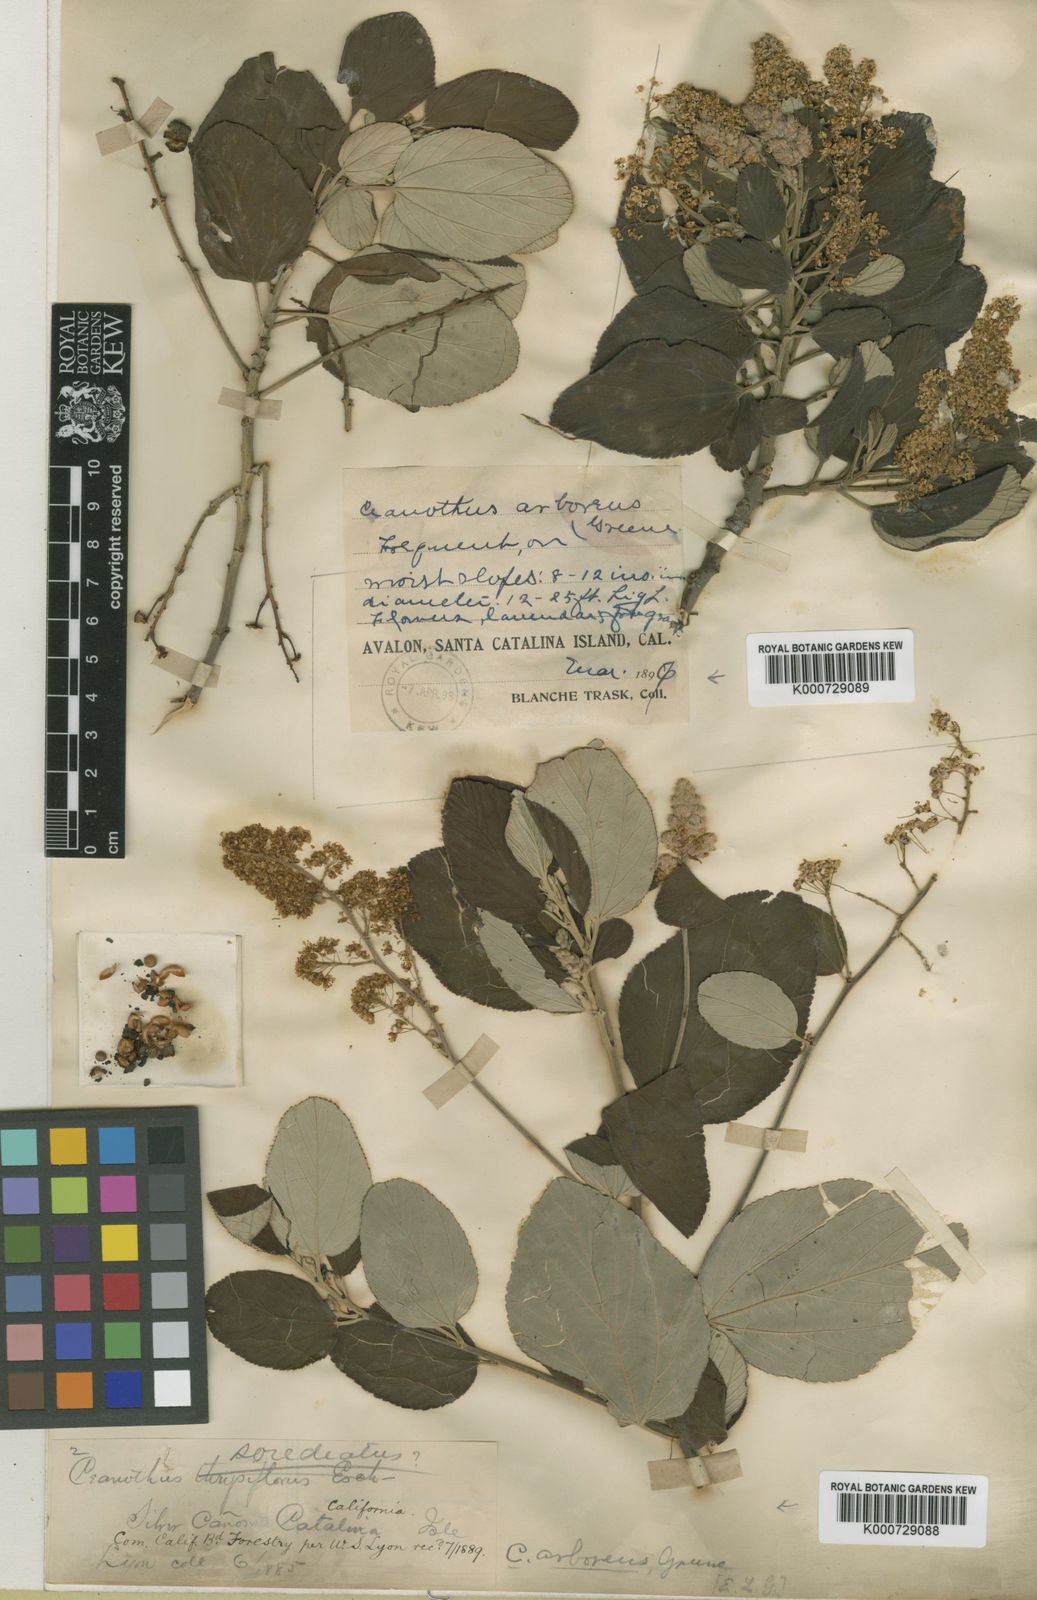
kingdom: Plantae
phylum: Tracheophyta
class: Magnoliopsida
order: Rosales
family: Rhamnaceae
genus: Ceanothus
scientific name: Ceanothus arboreus
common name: Catalina mountain-lilac
